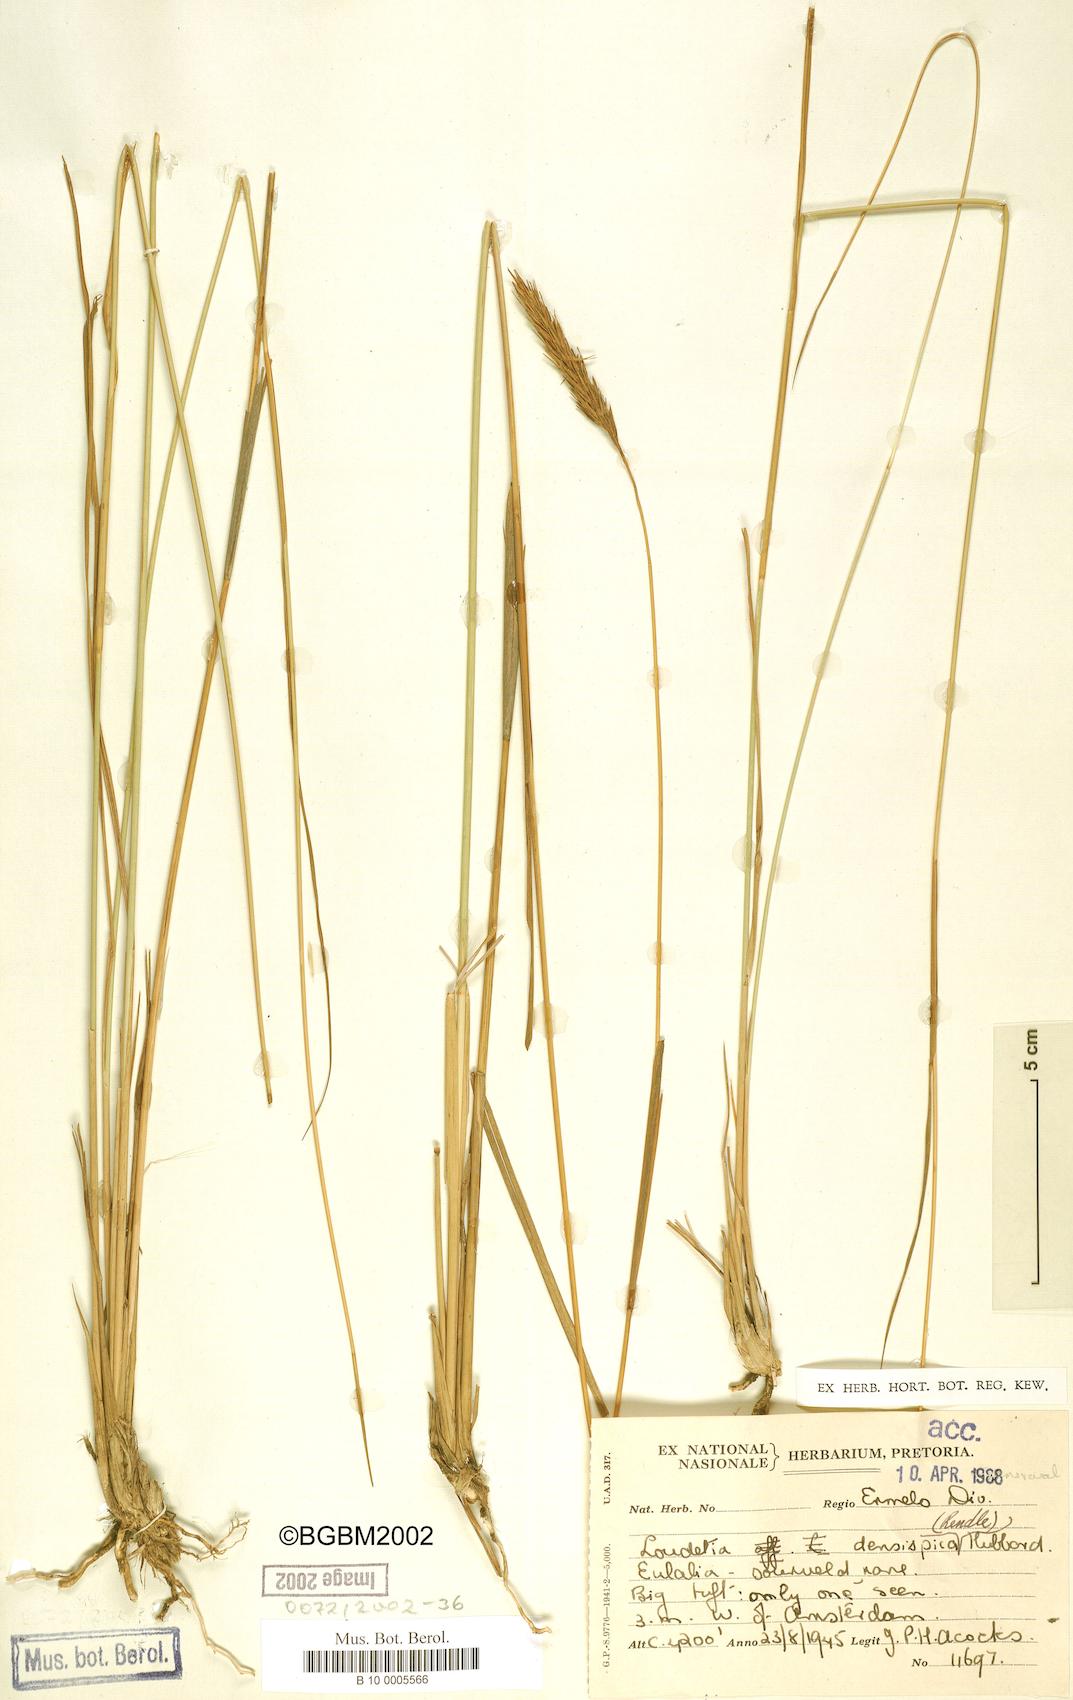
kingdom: Plantae
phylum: Tracheophyta
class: Liliopsida
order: Poales
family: Poaceae
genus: Loudetia
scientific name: Loudetia densispica
